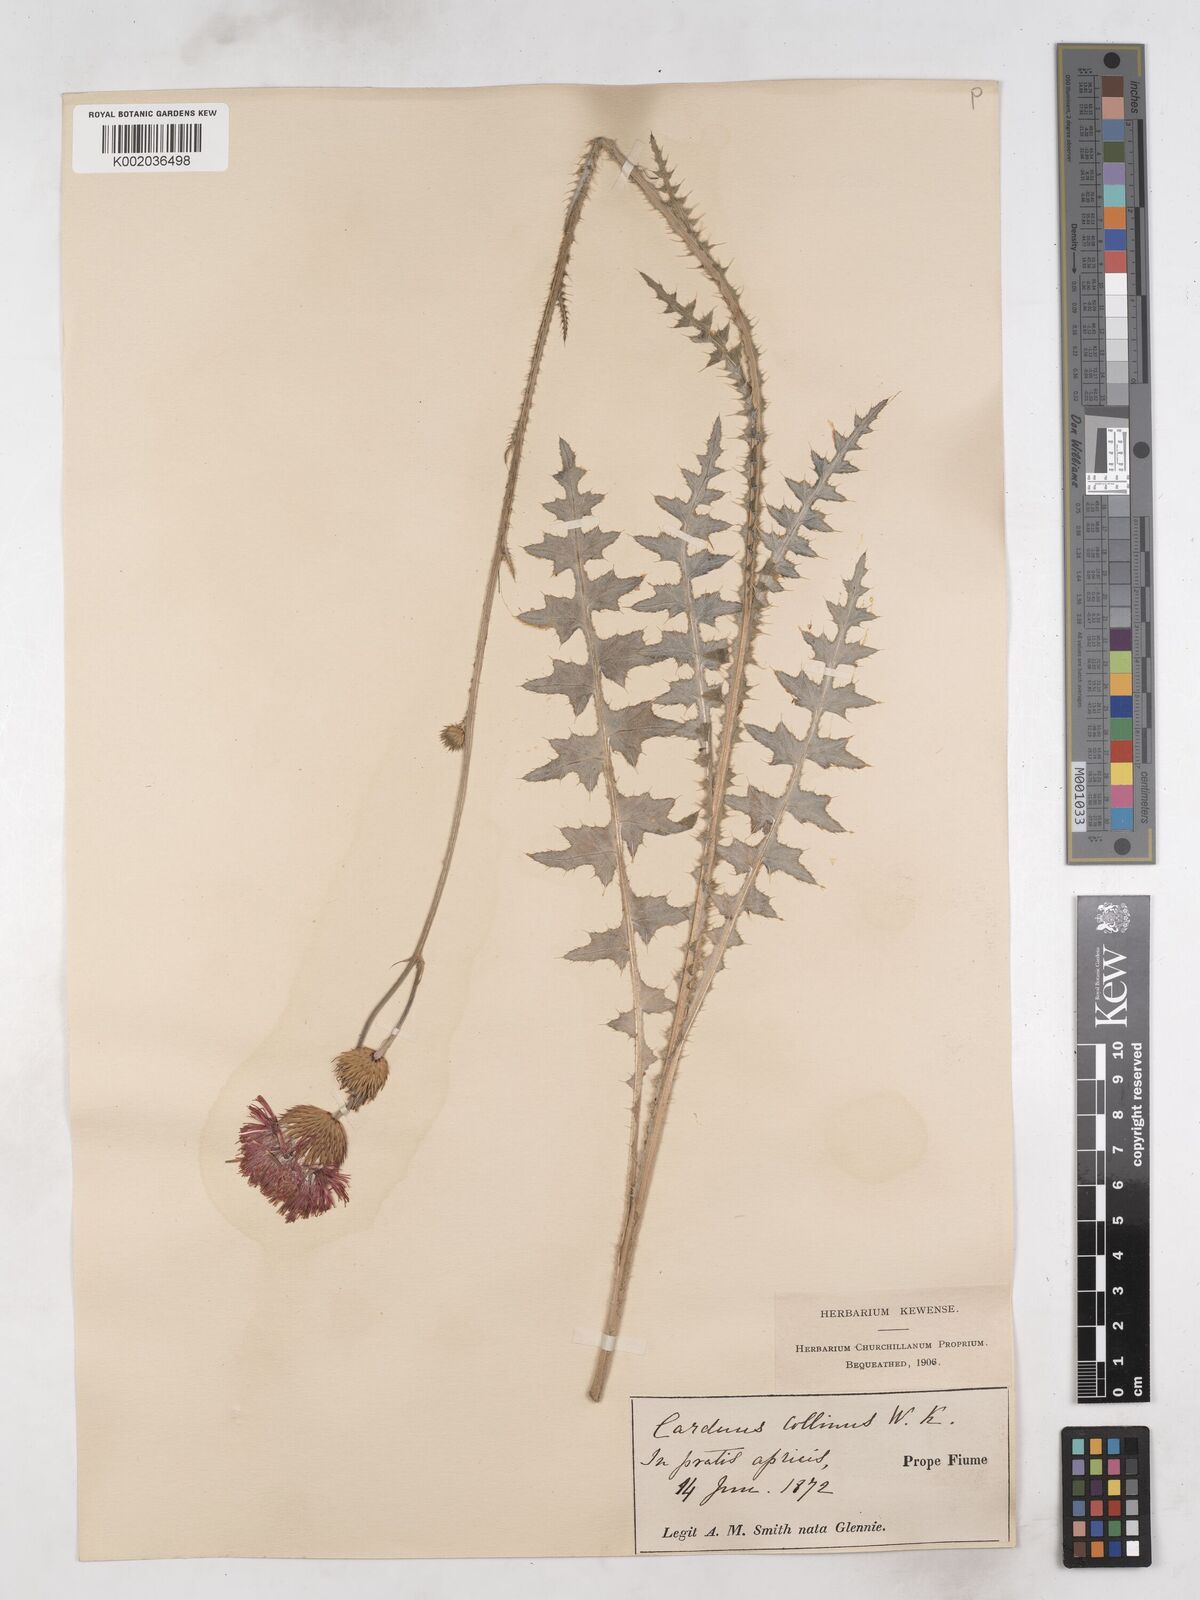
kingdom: Plantae
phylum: Tracheophyta
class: Magnoliopsida
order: Asterales
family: Asteraceae
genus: Carduus
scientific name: Carduus collinus
